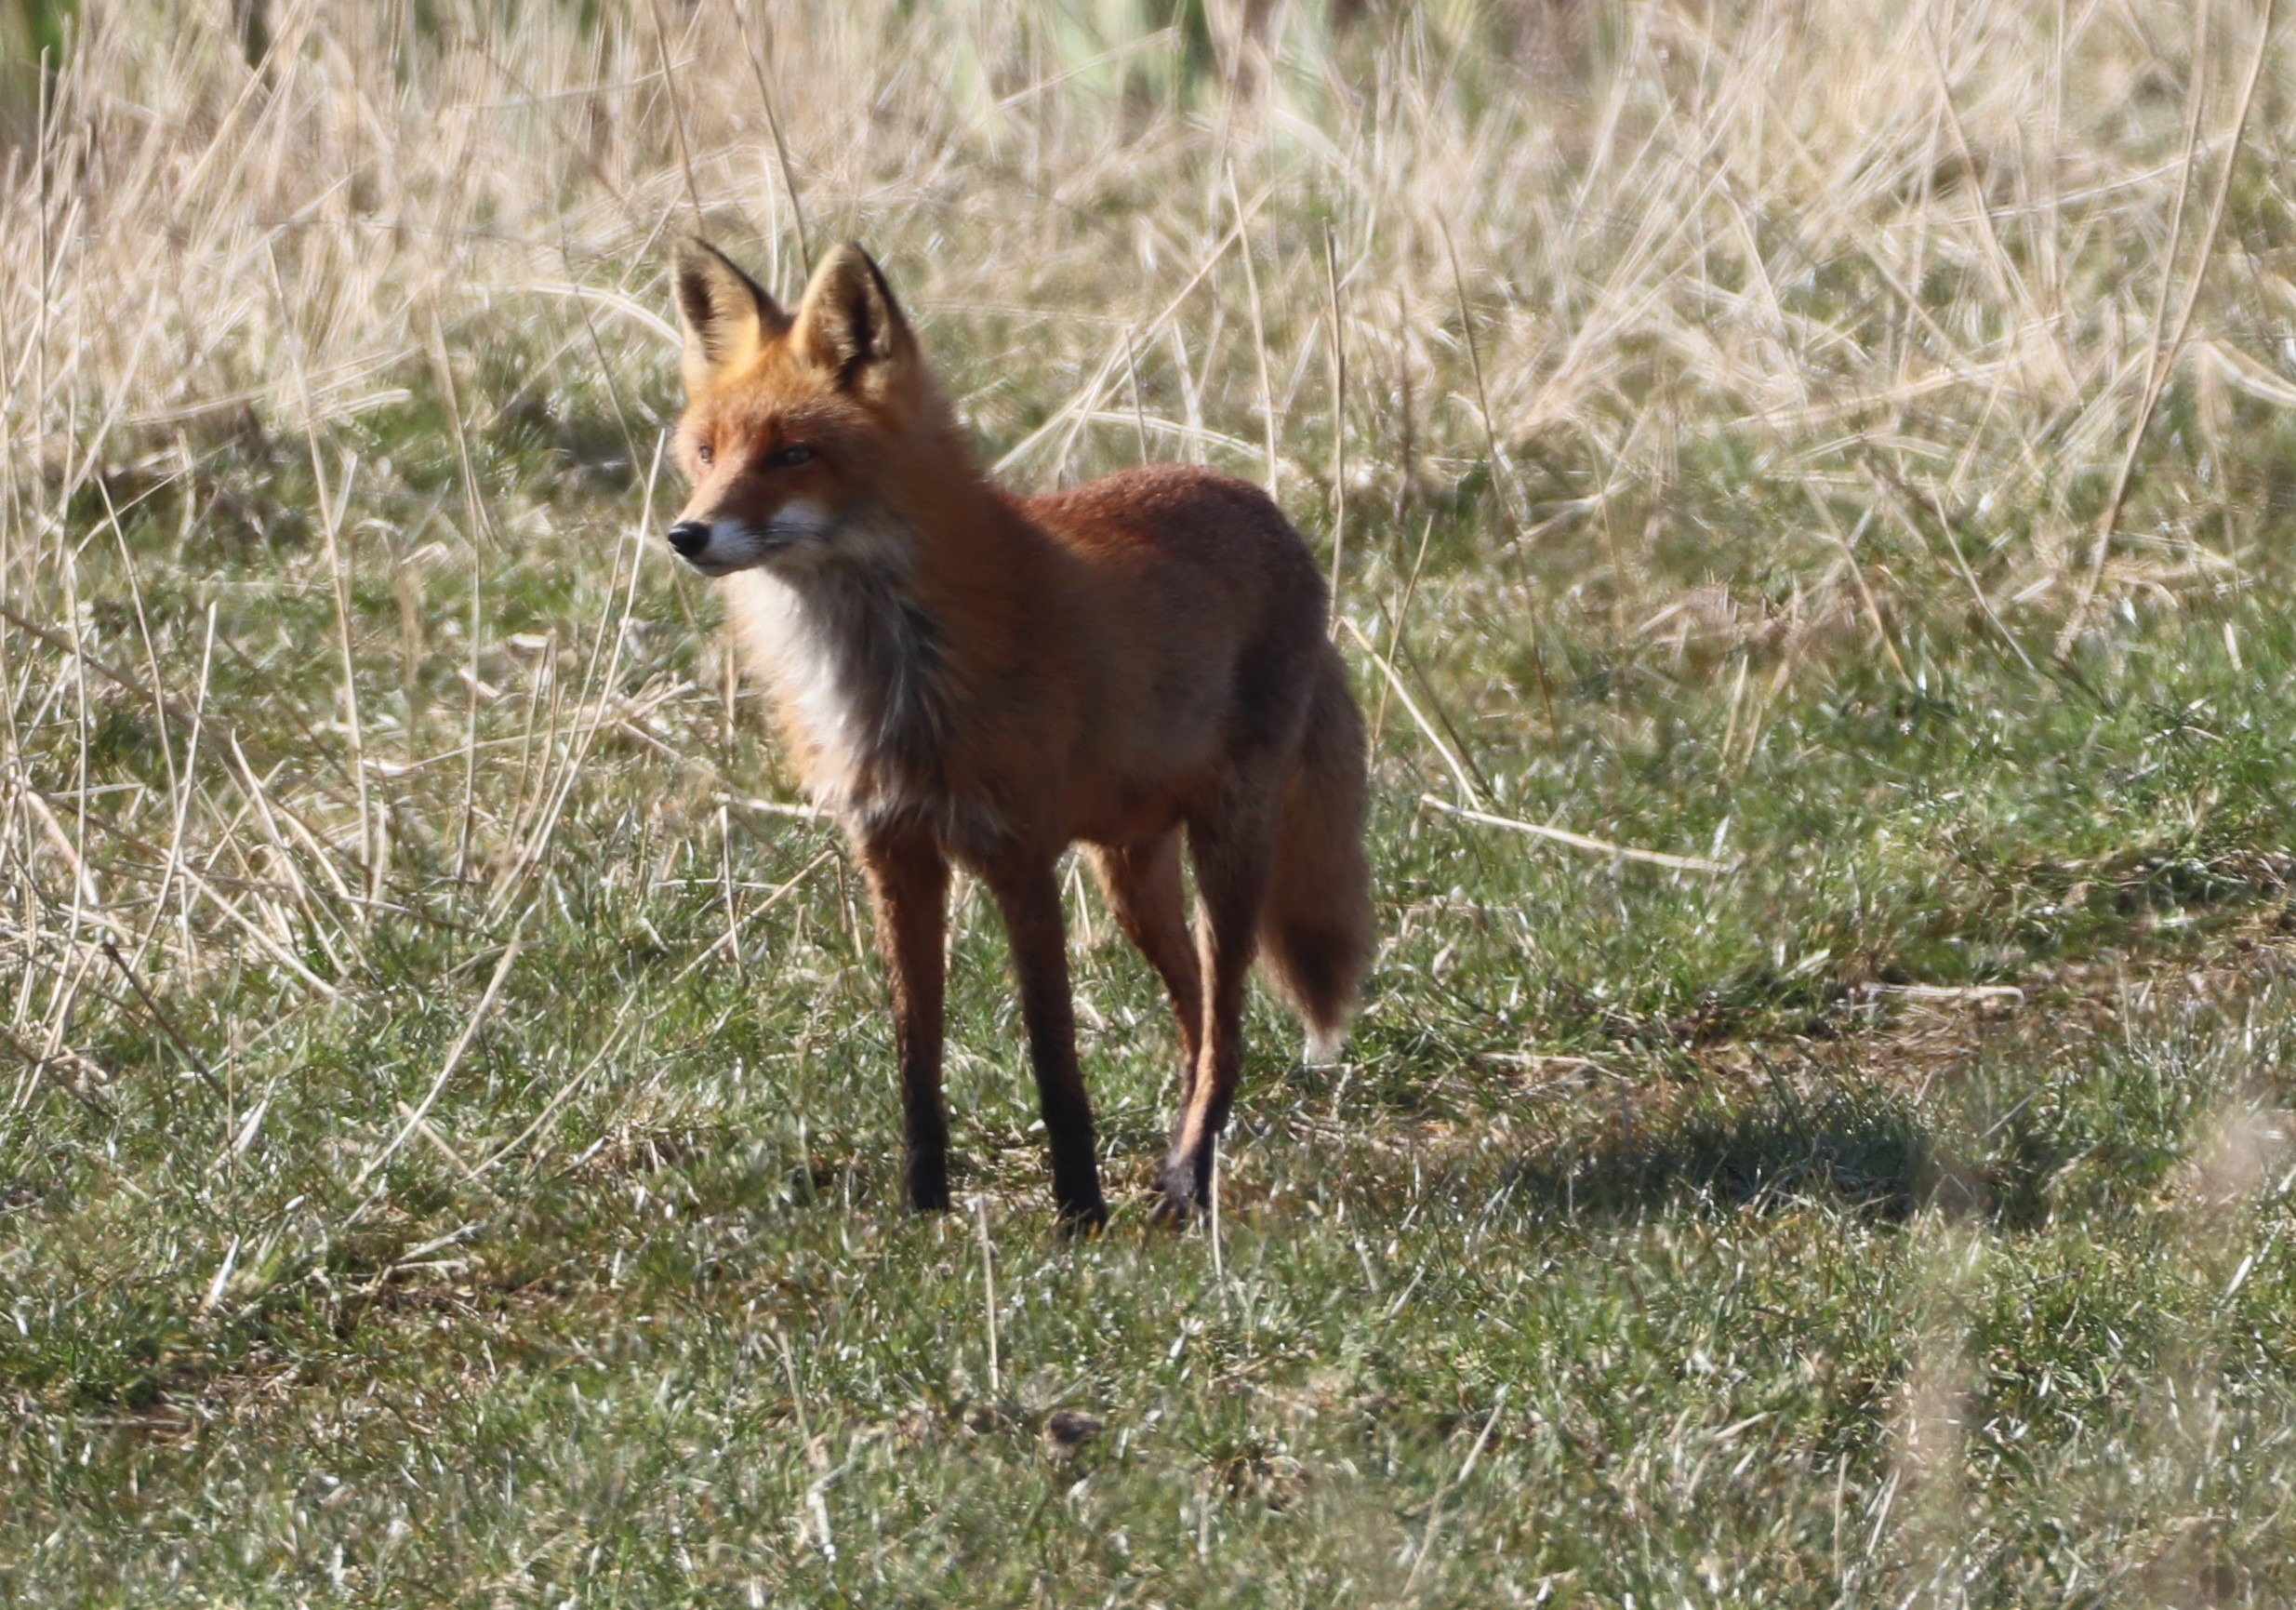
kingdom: Animalia
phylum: Chordata
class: Mammalia
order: Carnivora
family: Canidae
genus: Vulpes
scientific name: Vulpes vulpes
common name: Ræv
